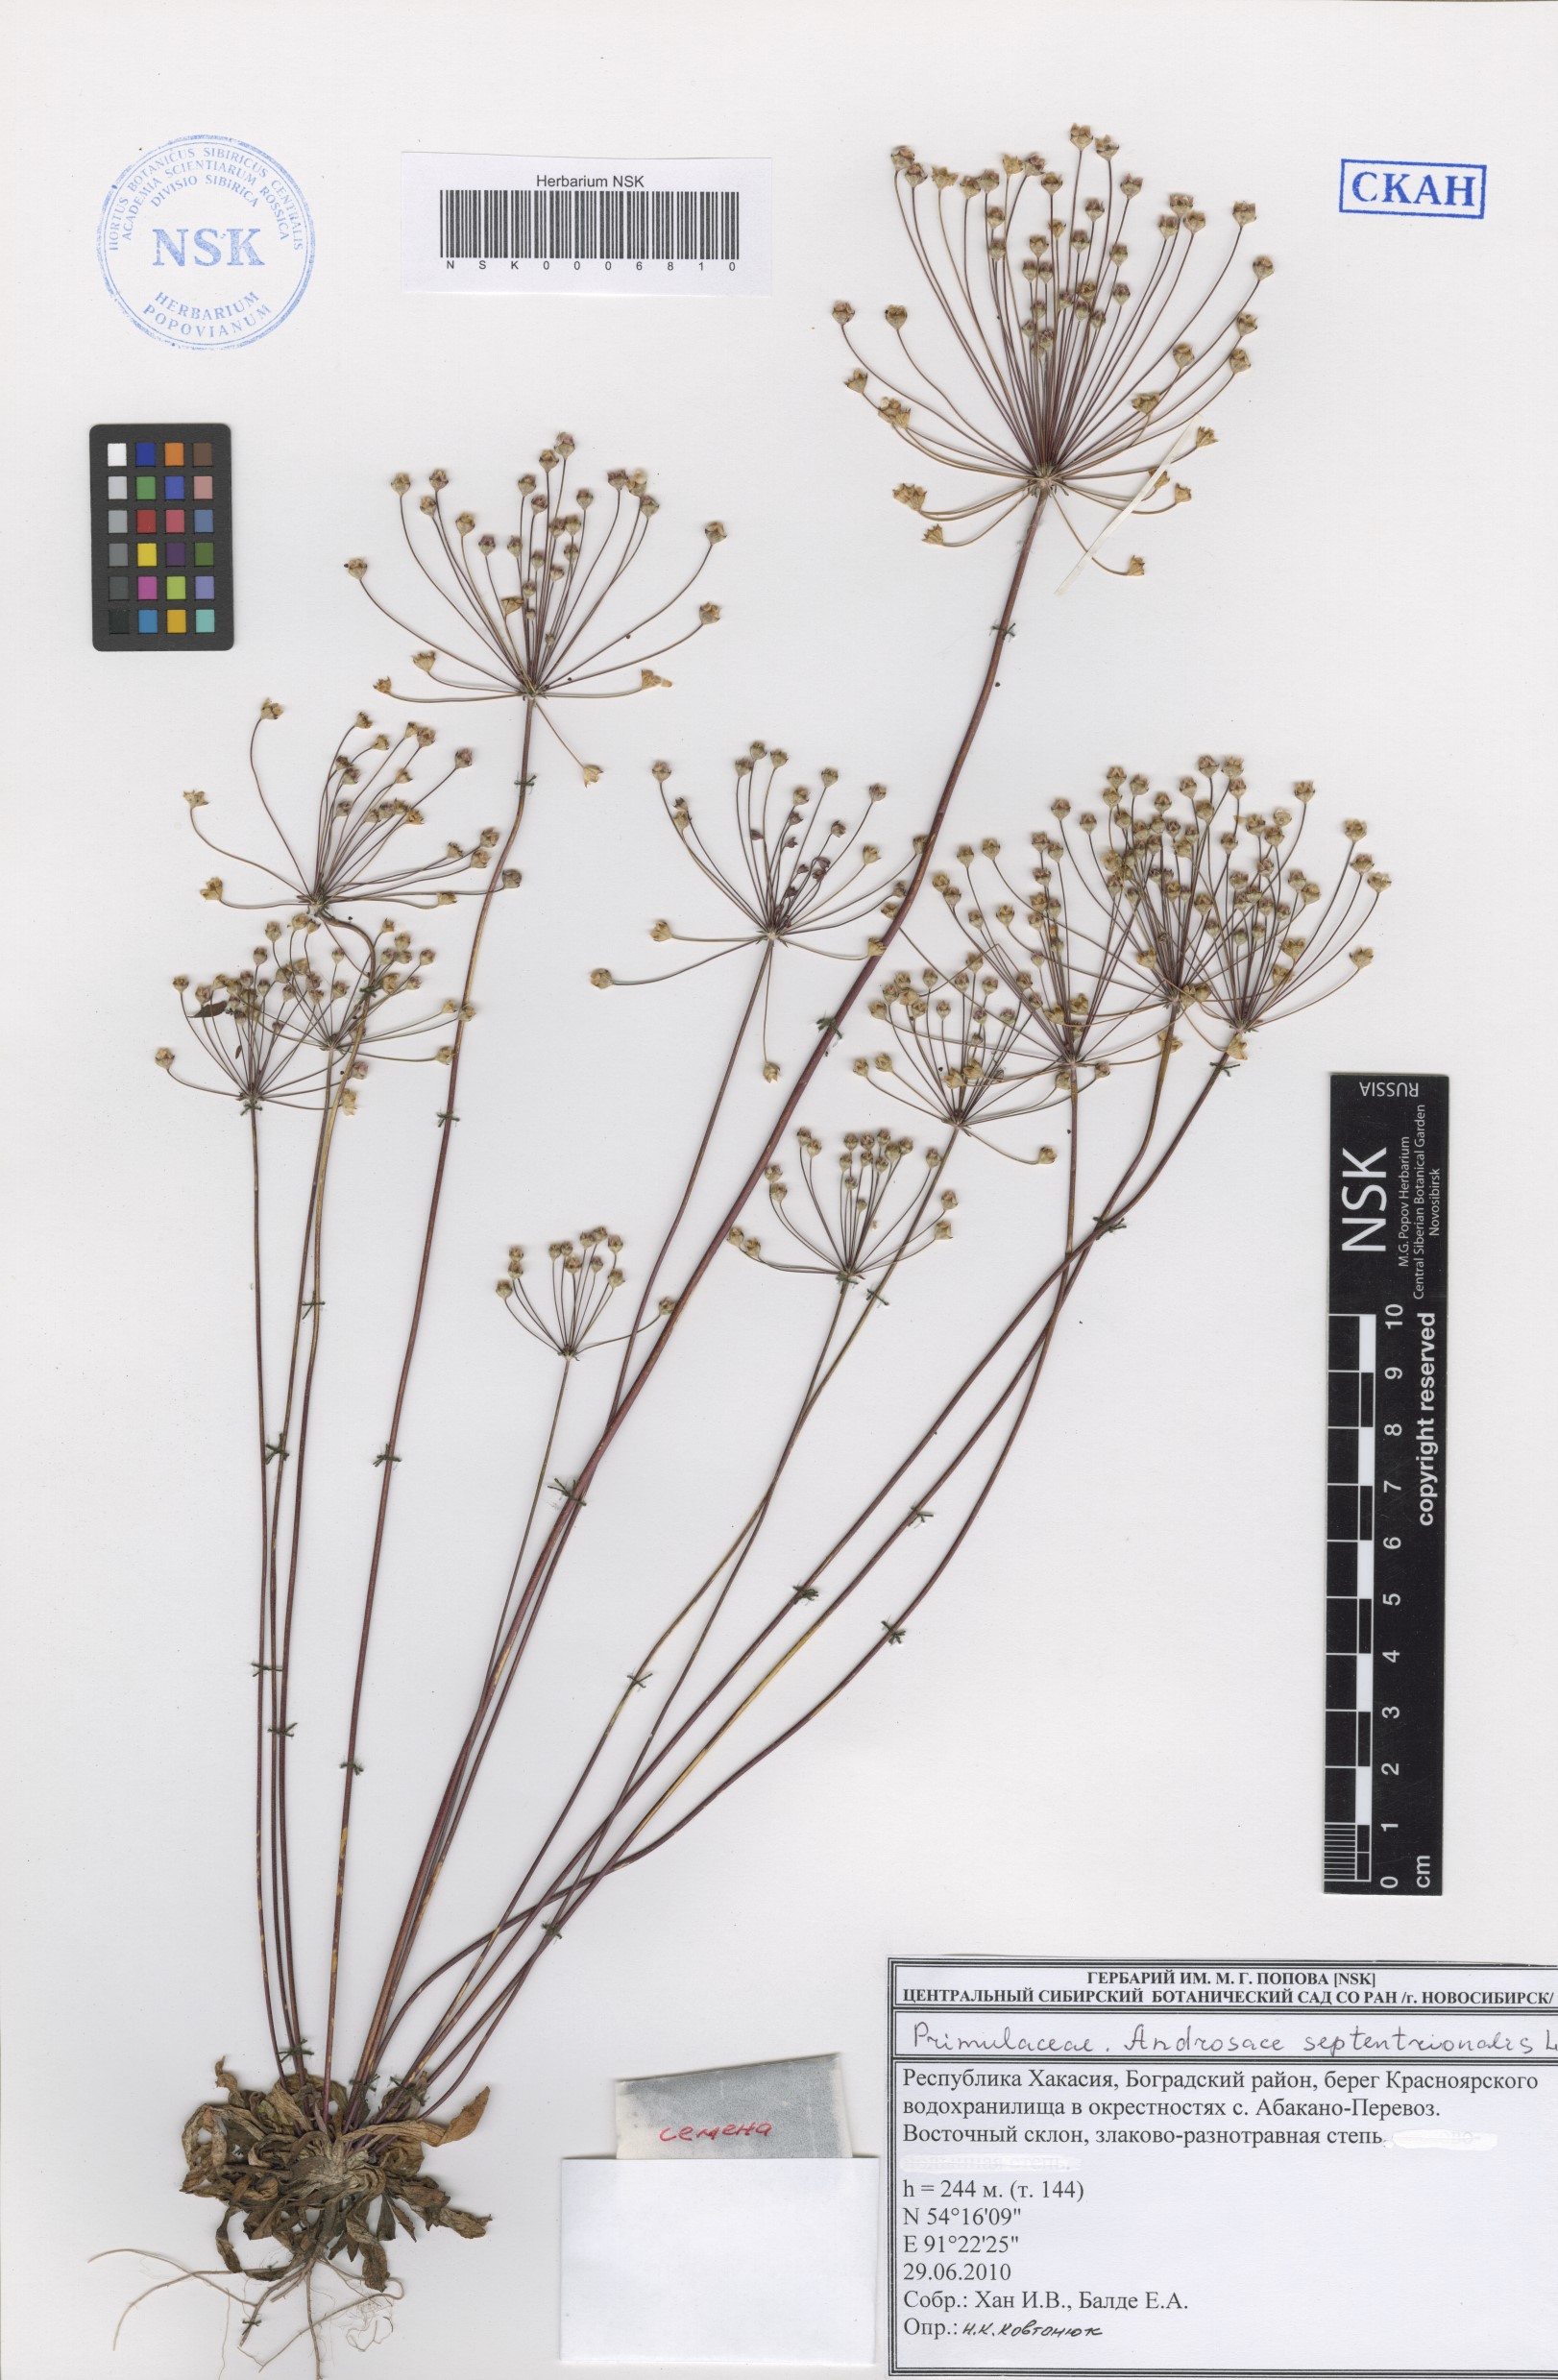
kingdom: Plantae
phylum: Tracheophyta
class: Magnoliopsida
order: Ericales
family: Primulaceae
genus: Androsace
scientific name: Androsace septentrionalis
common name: Hairy northern fairy-candelabra
